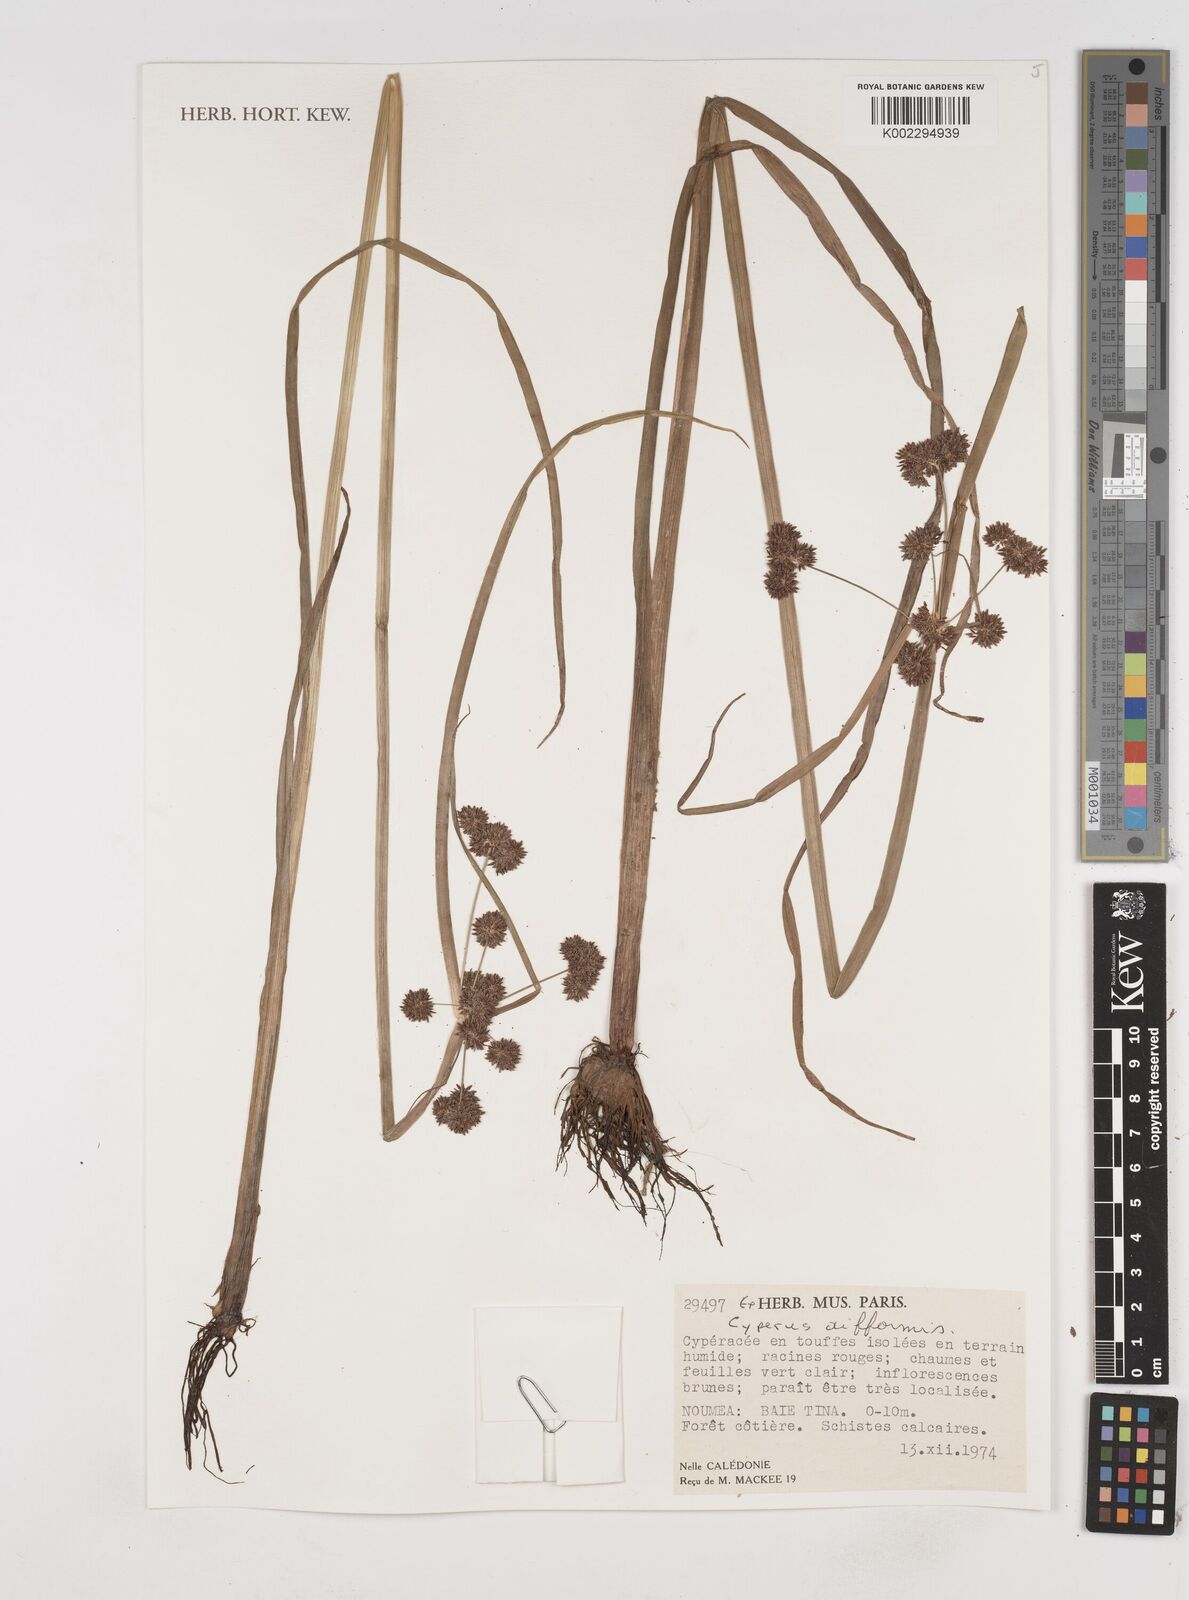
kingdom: Plantae
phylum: Tracheophyta
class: Liliopsida
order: Poales
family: Cyperaceae
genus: Cyperus
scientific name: Cyperus difformis
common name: Variable flatsedge
